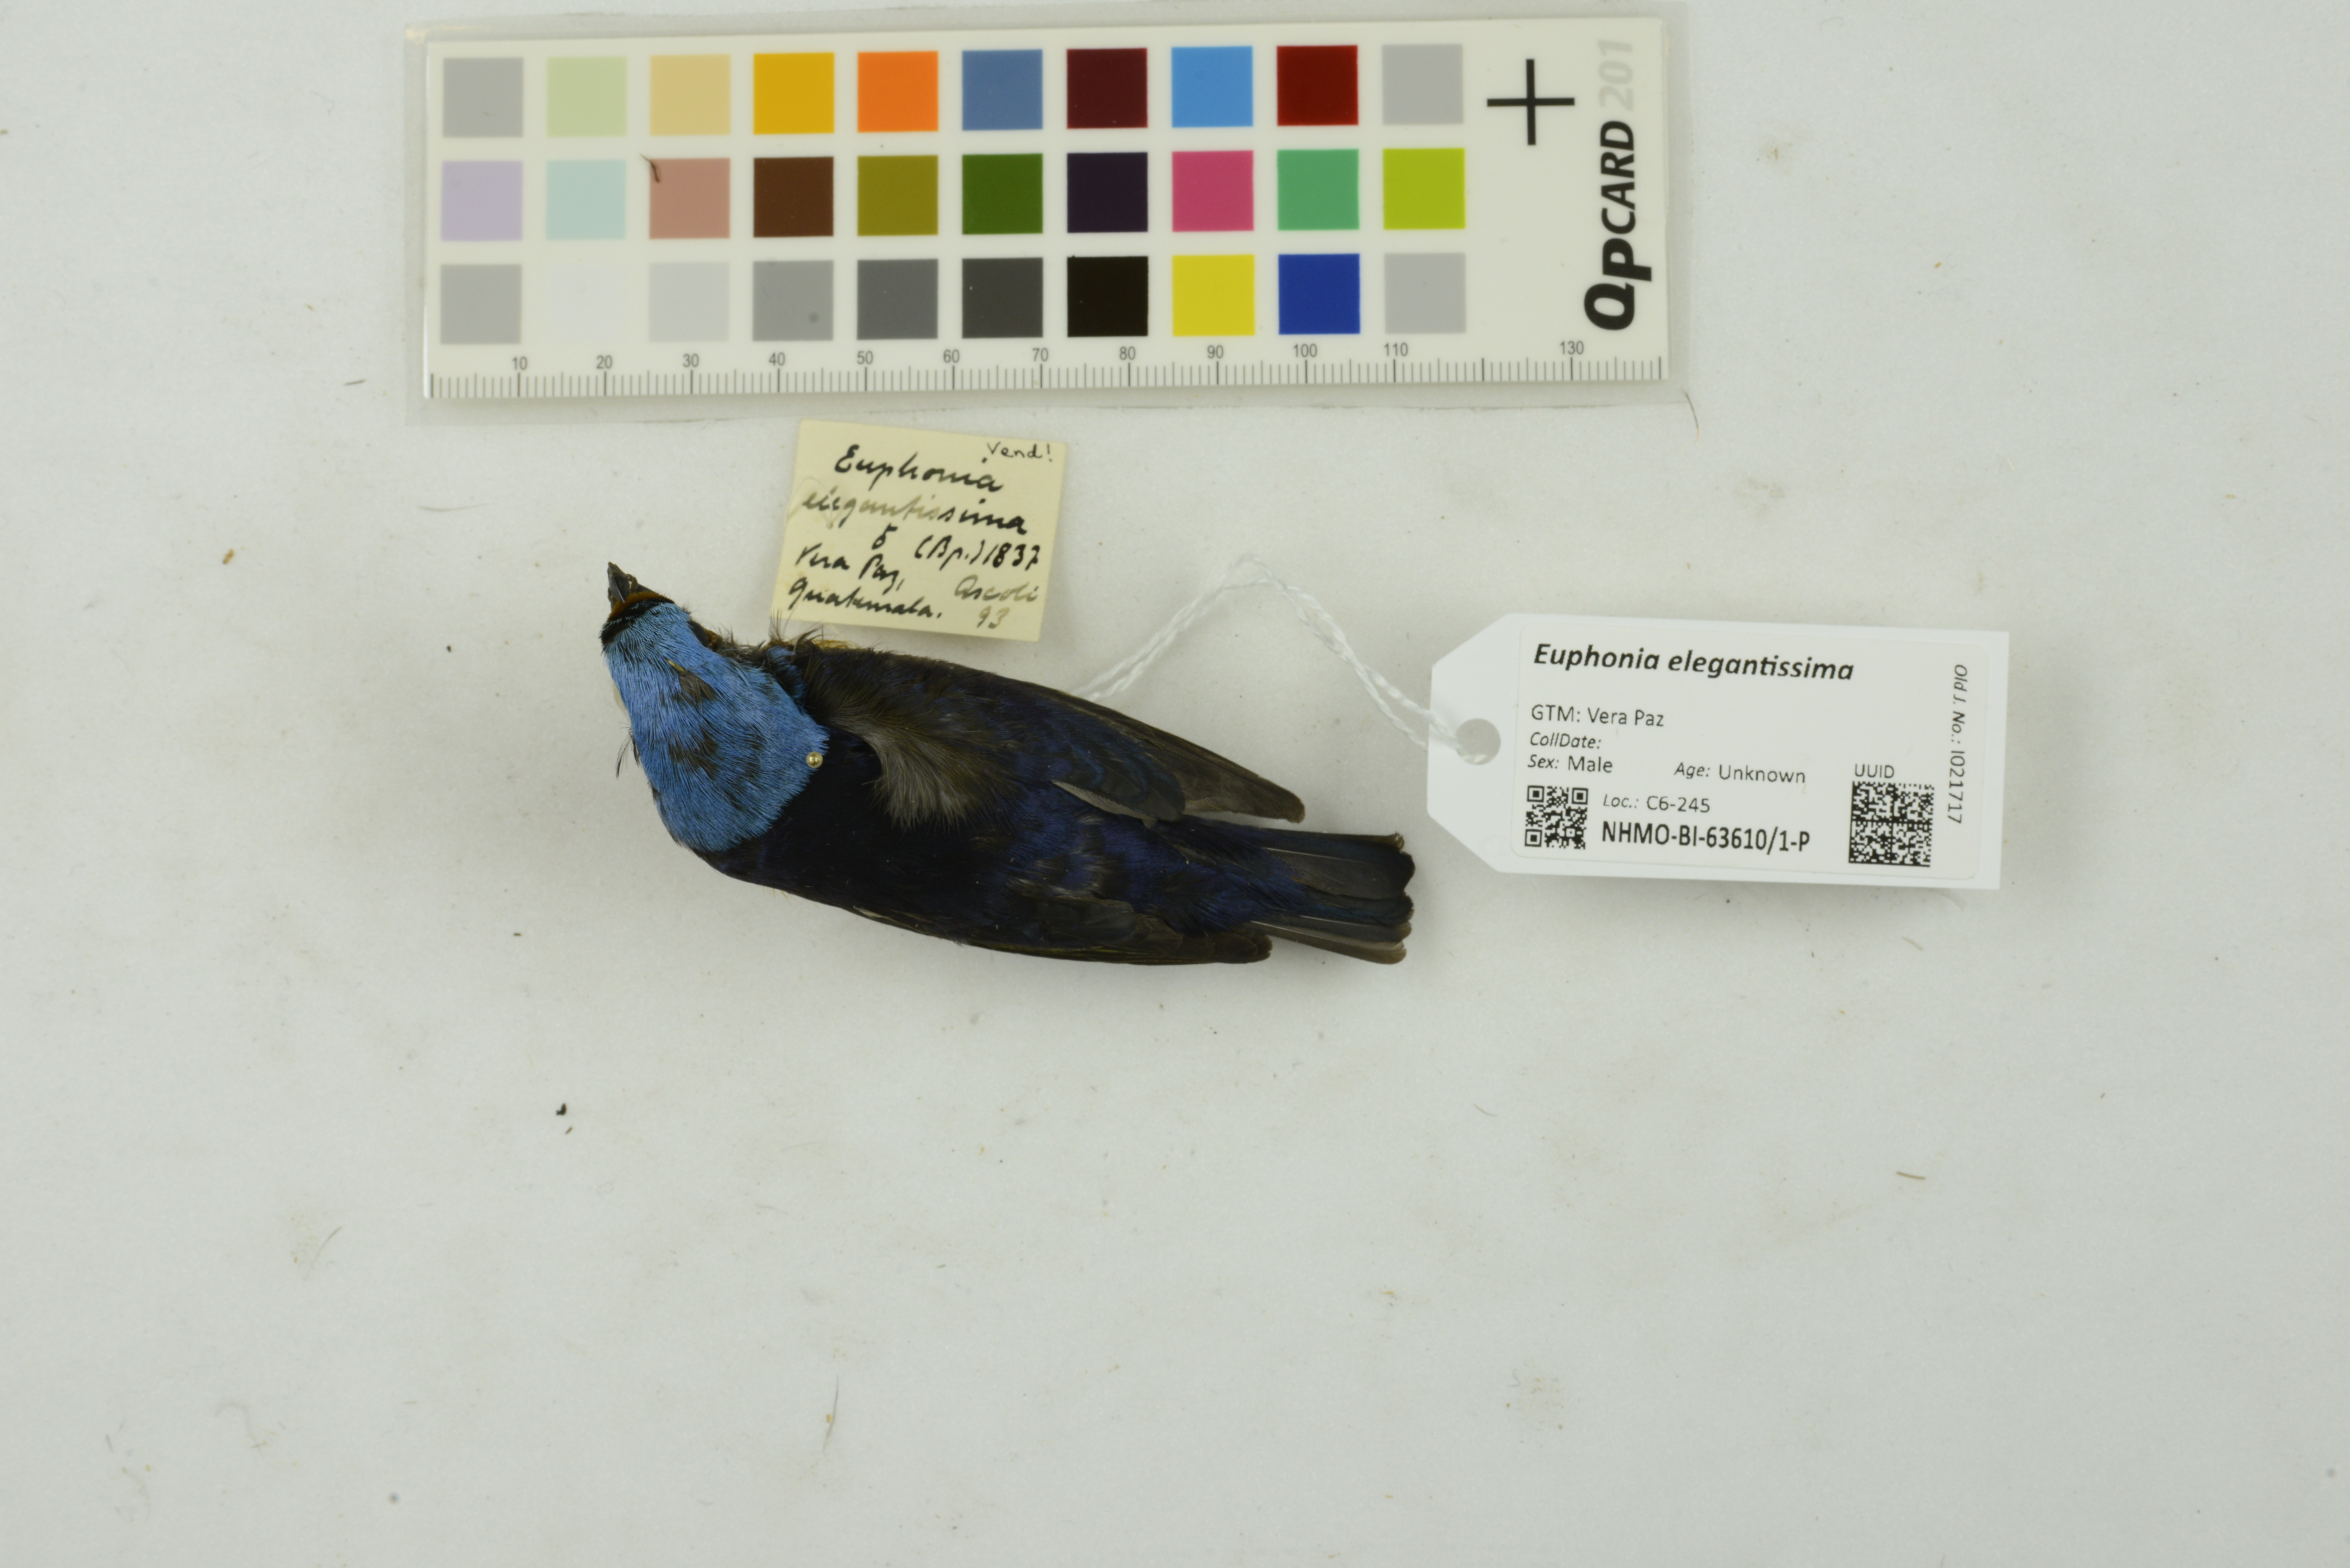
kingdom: Animalia
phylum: Chordata
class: Aves
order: Passeriformes
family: Fringillidae
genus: Euphonia
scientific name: Euphonia elegantissima
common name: Elegant euphonia
